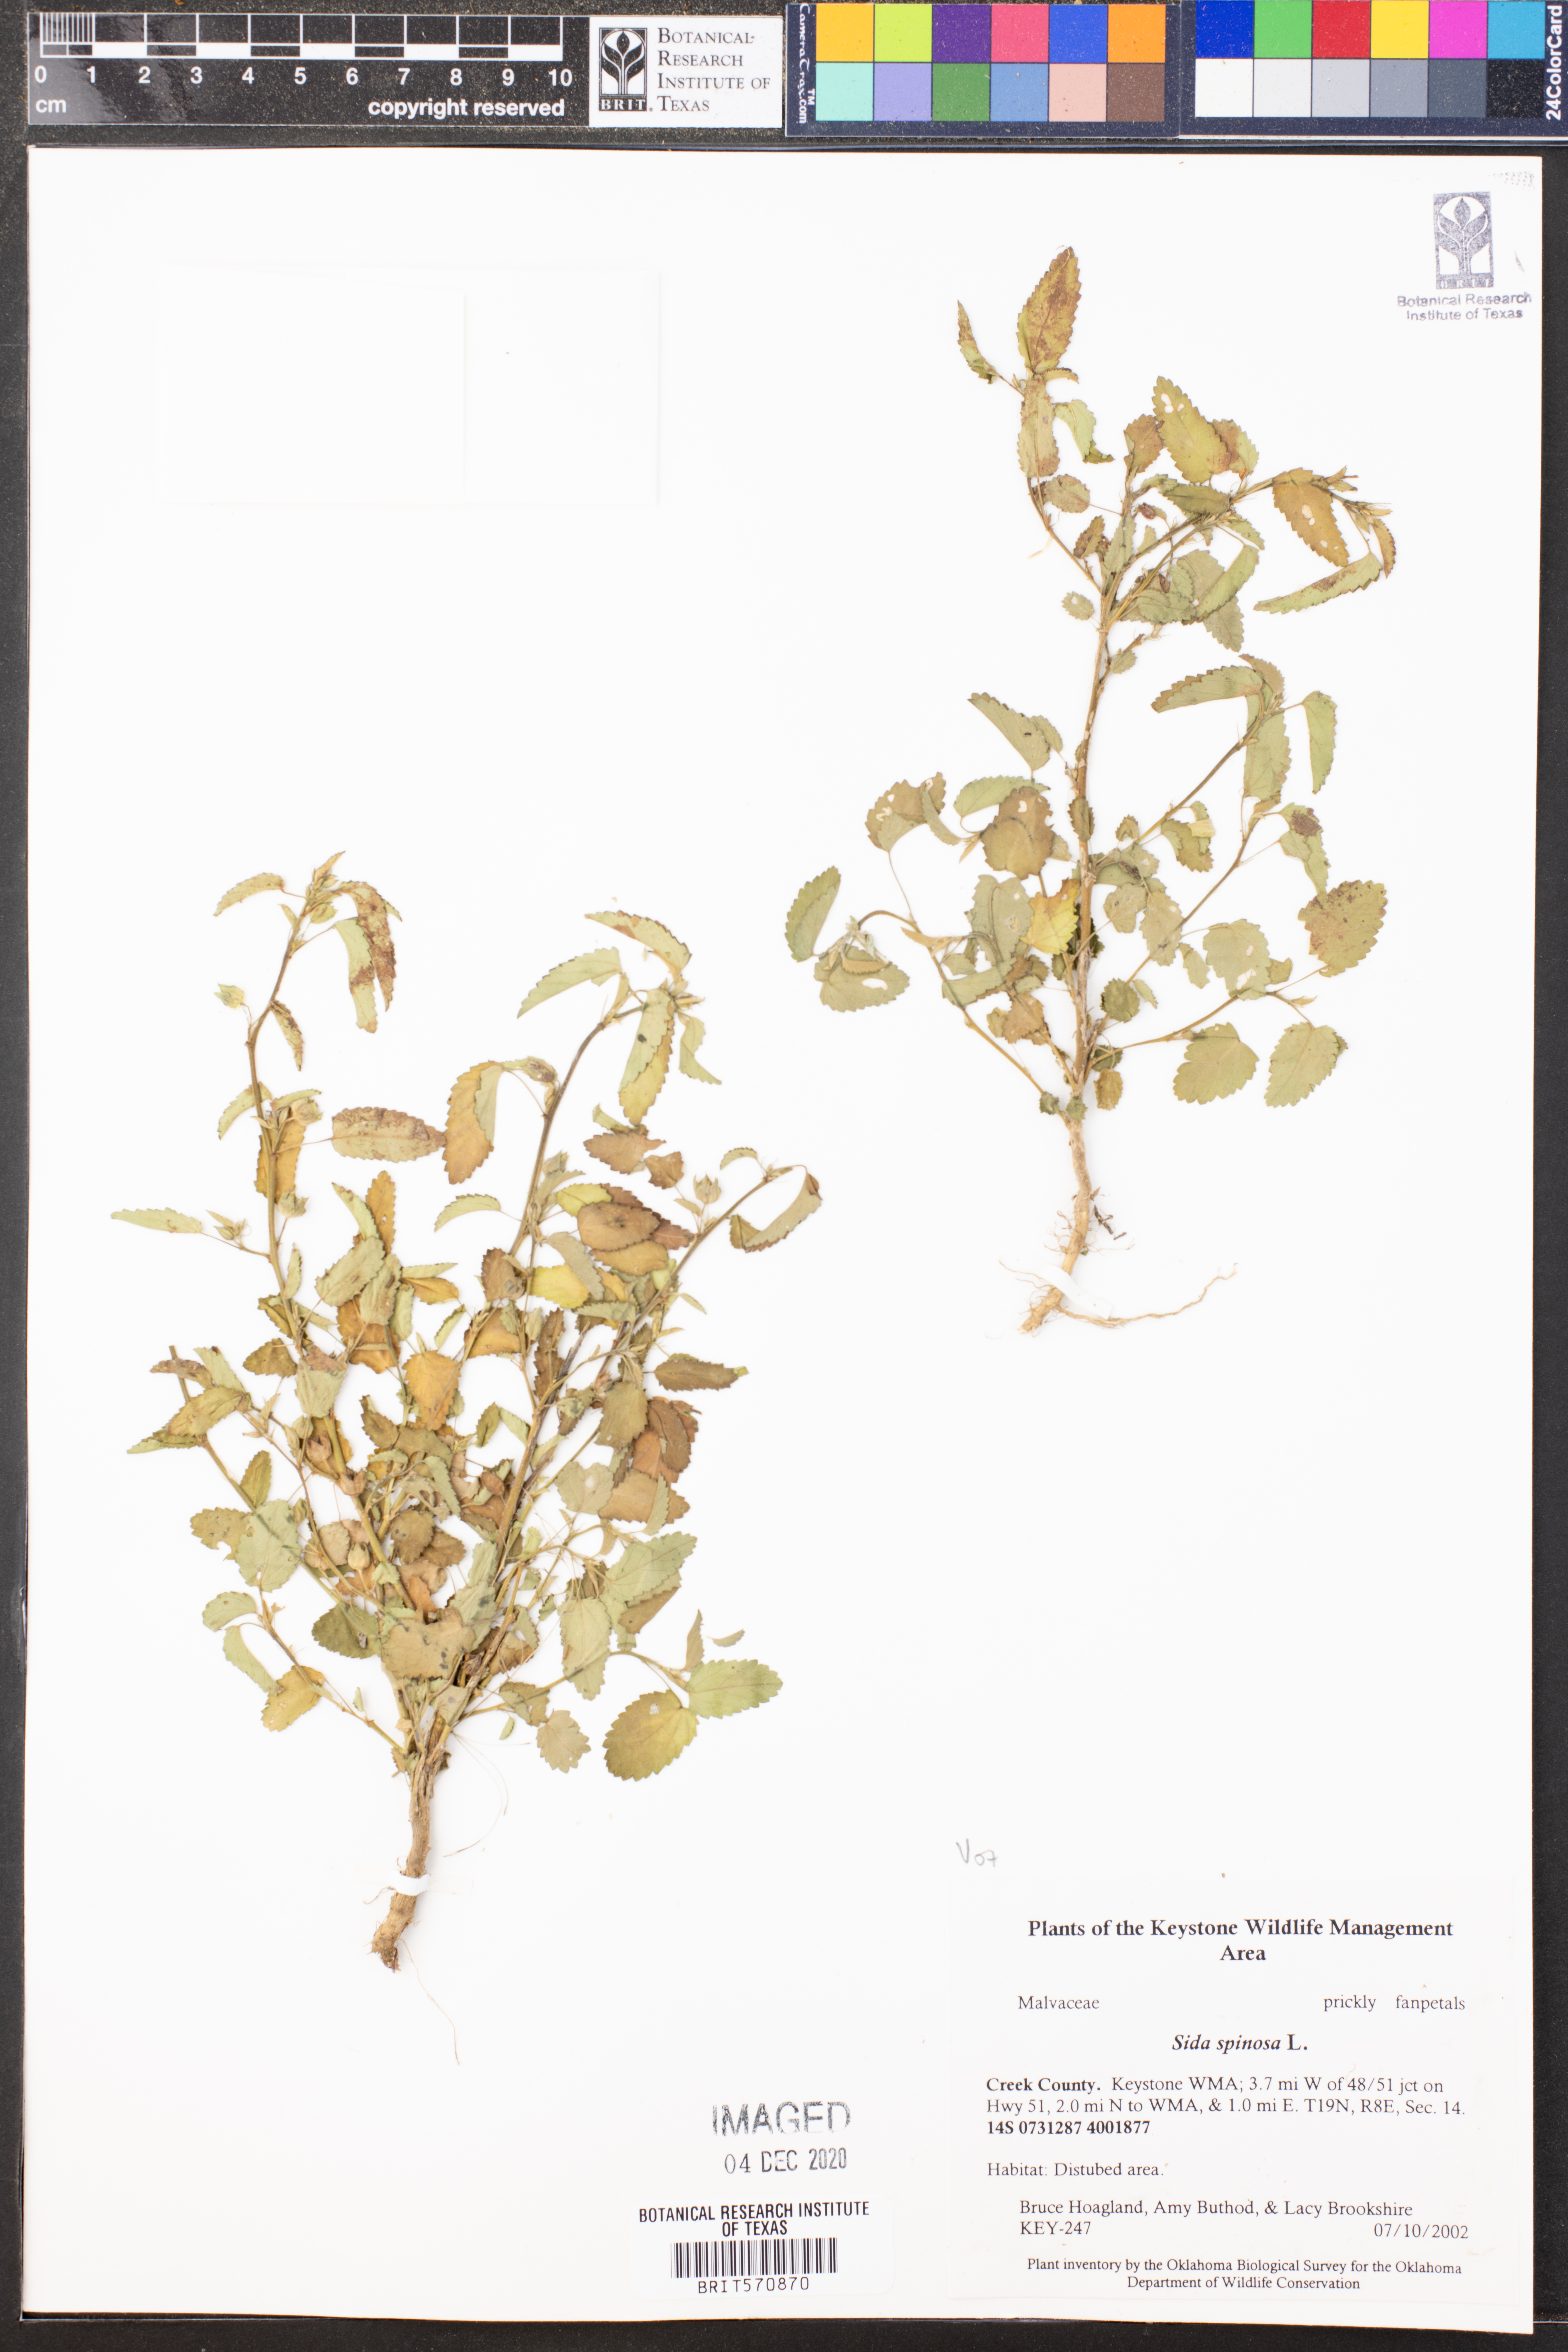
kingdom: Plantae
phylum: Tracheophyta
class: Magnoliopsida
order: Malvales
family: Malvaceae
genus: Sida
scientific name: Sida spinosa
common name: Prickly fanpetals
